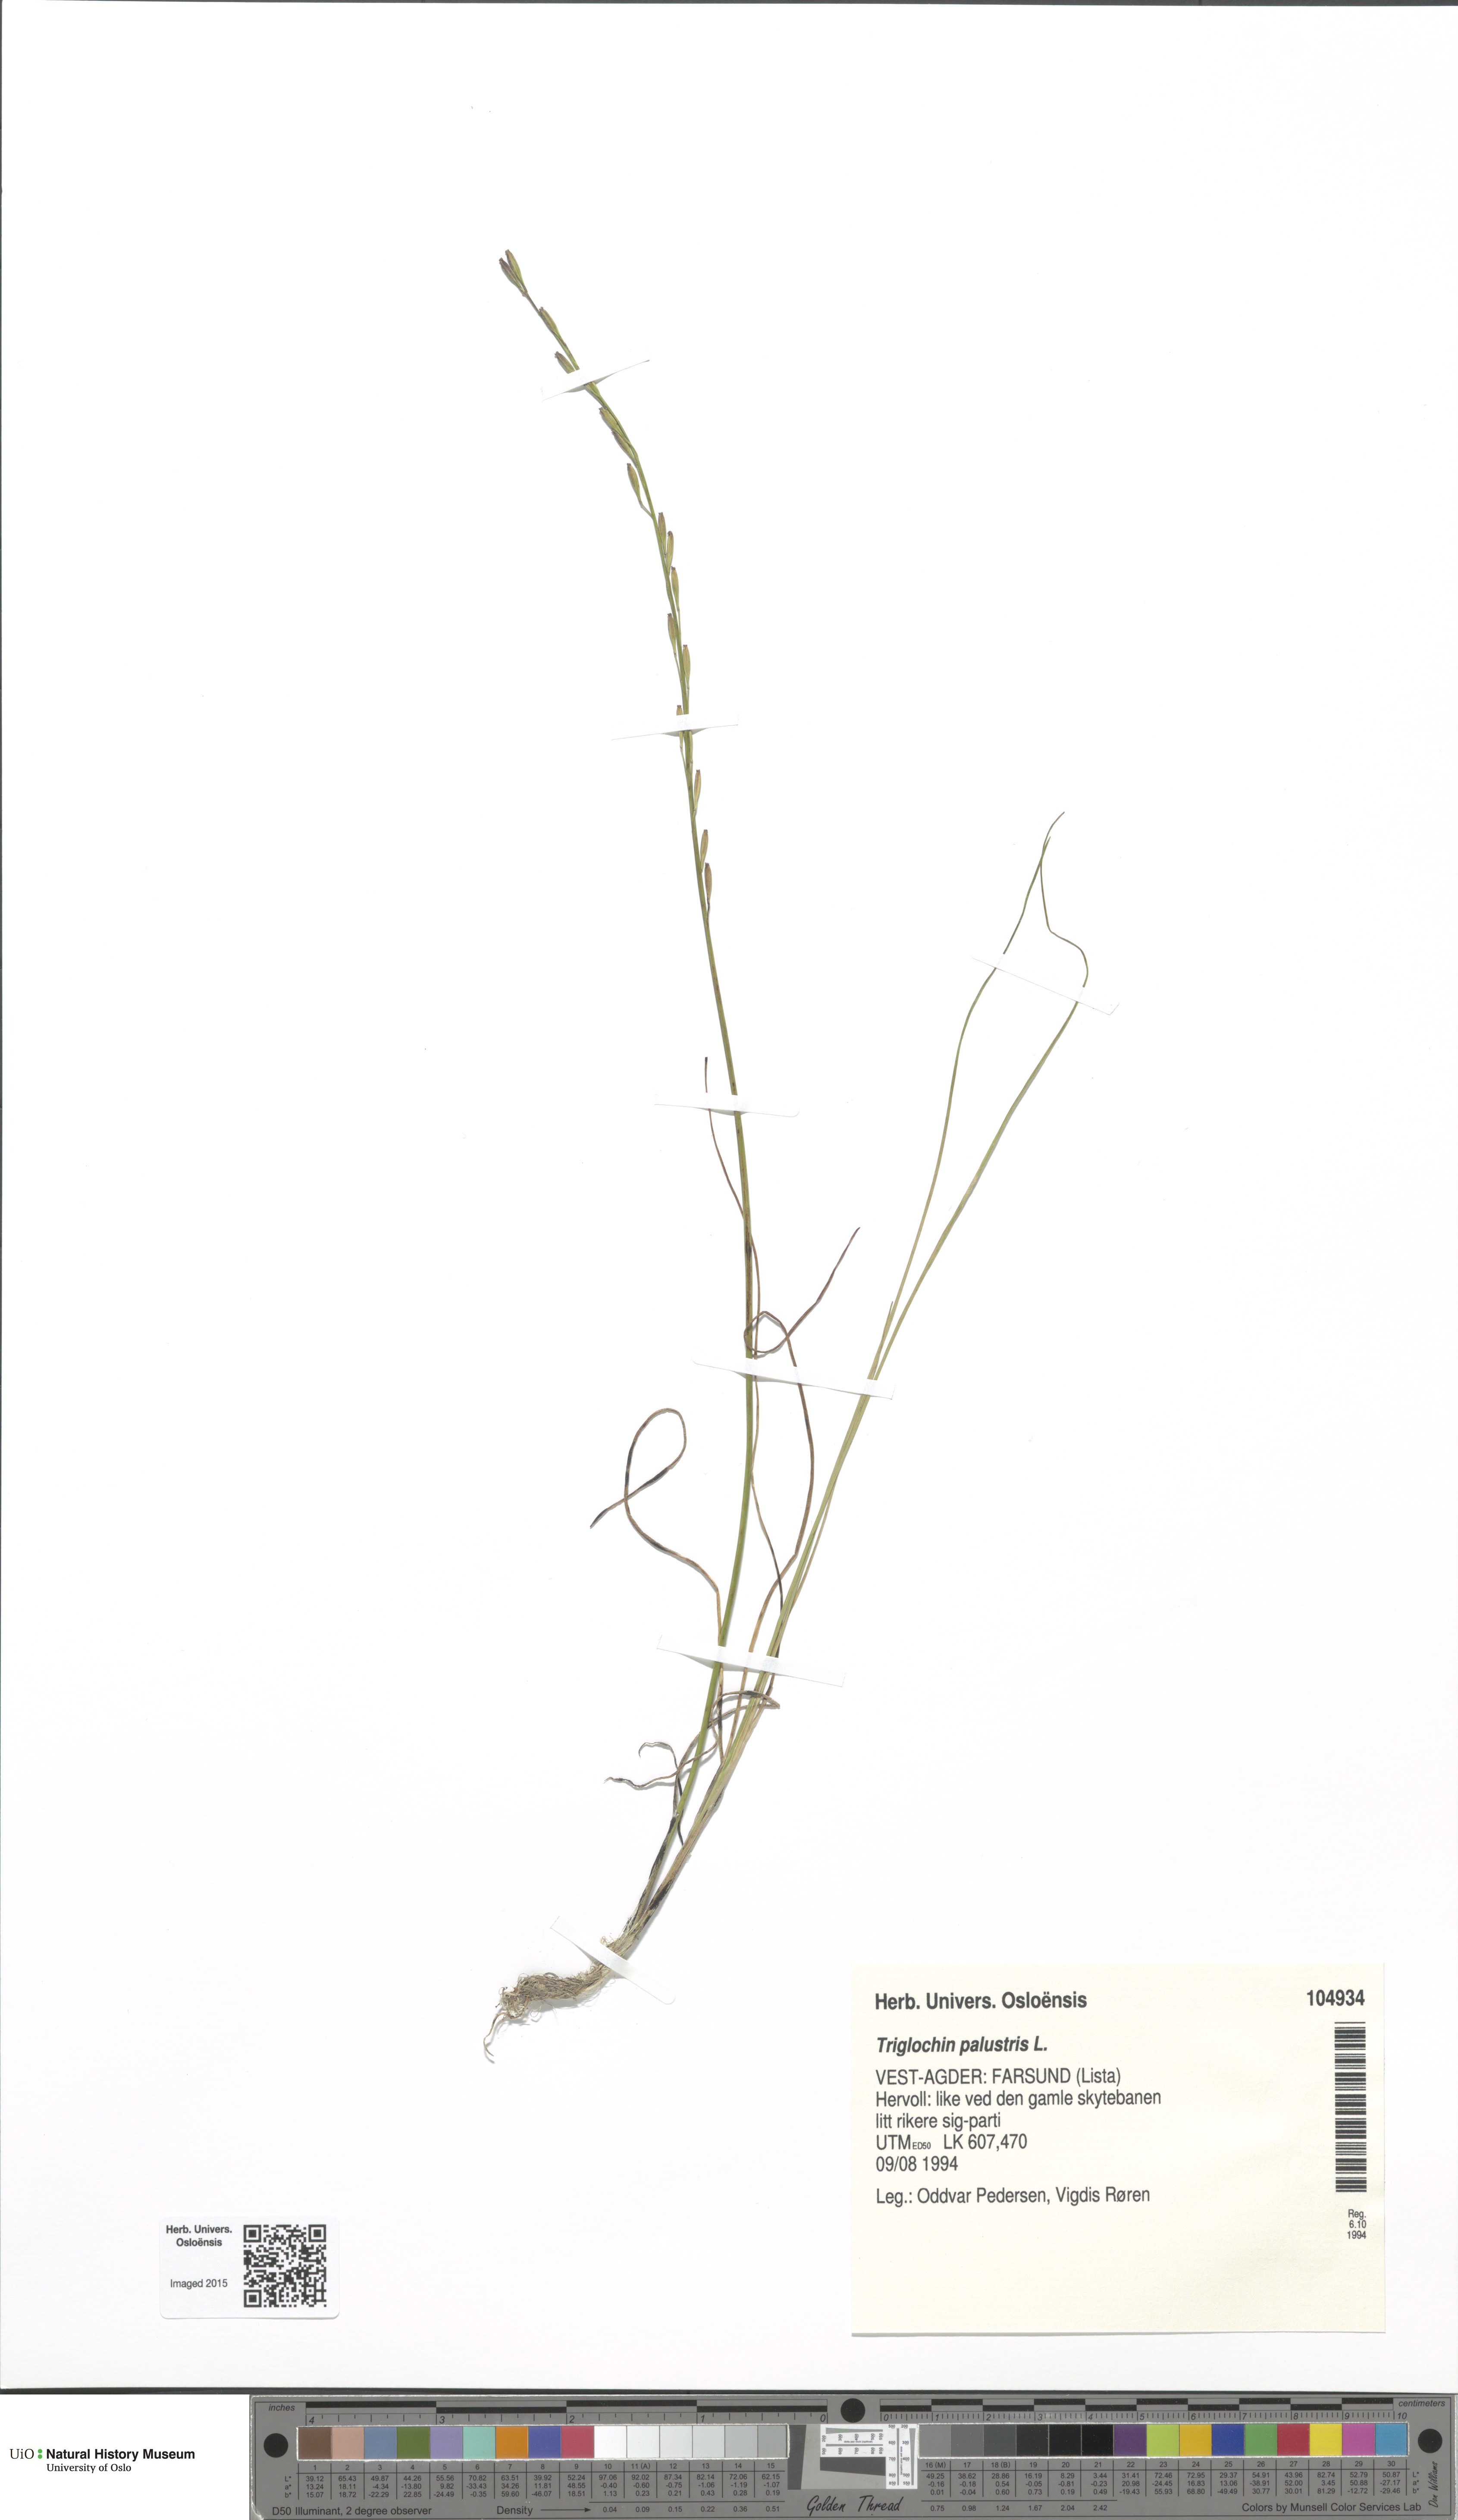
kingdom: Plantae
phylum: Tracheophyta
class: Liliopsida
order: Alismatales
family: Juncaginaceae
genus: Triglochin
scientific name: Triglochin palustris
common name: Marsh arrowgrass
